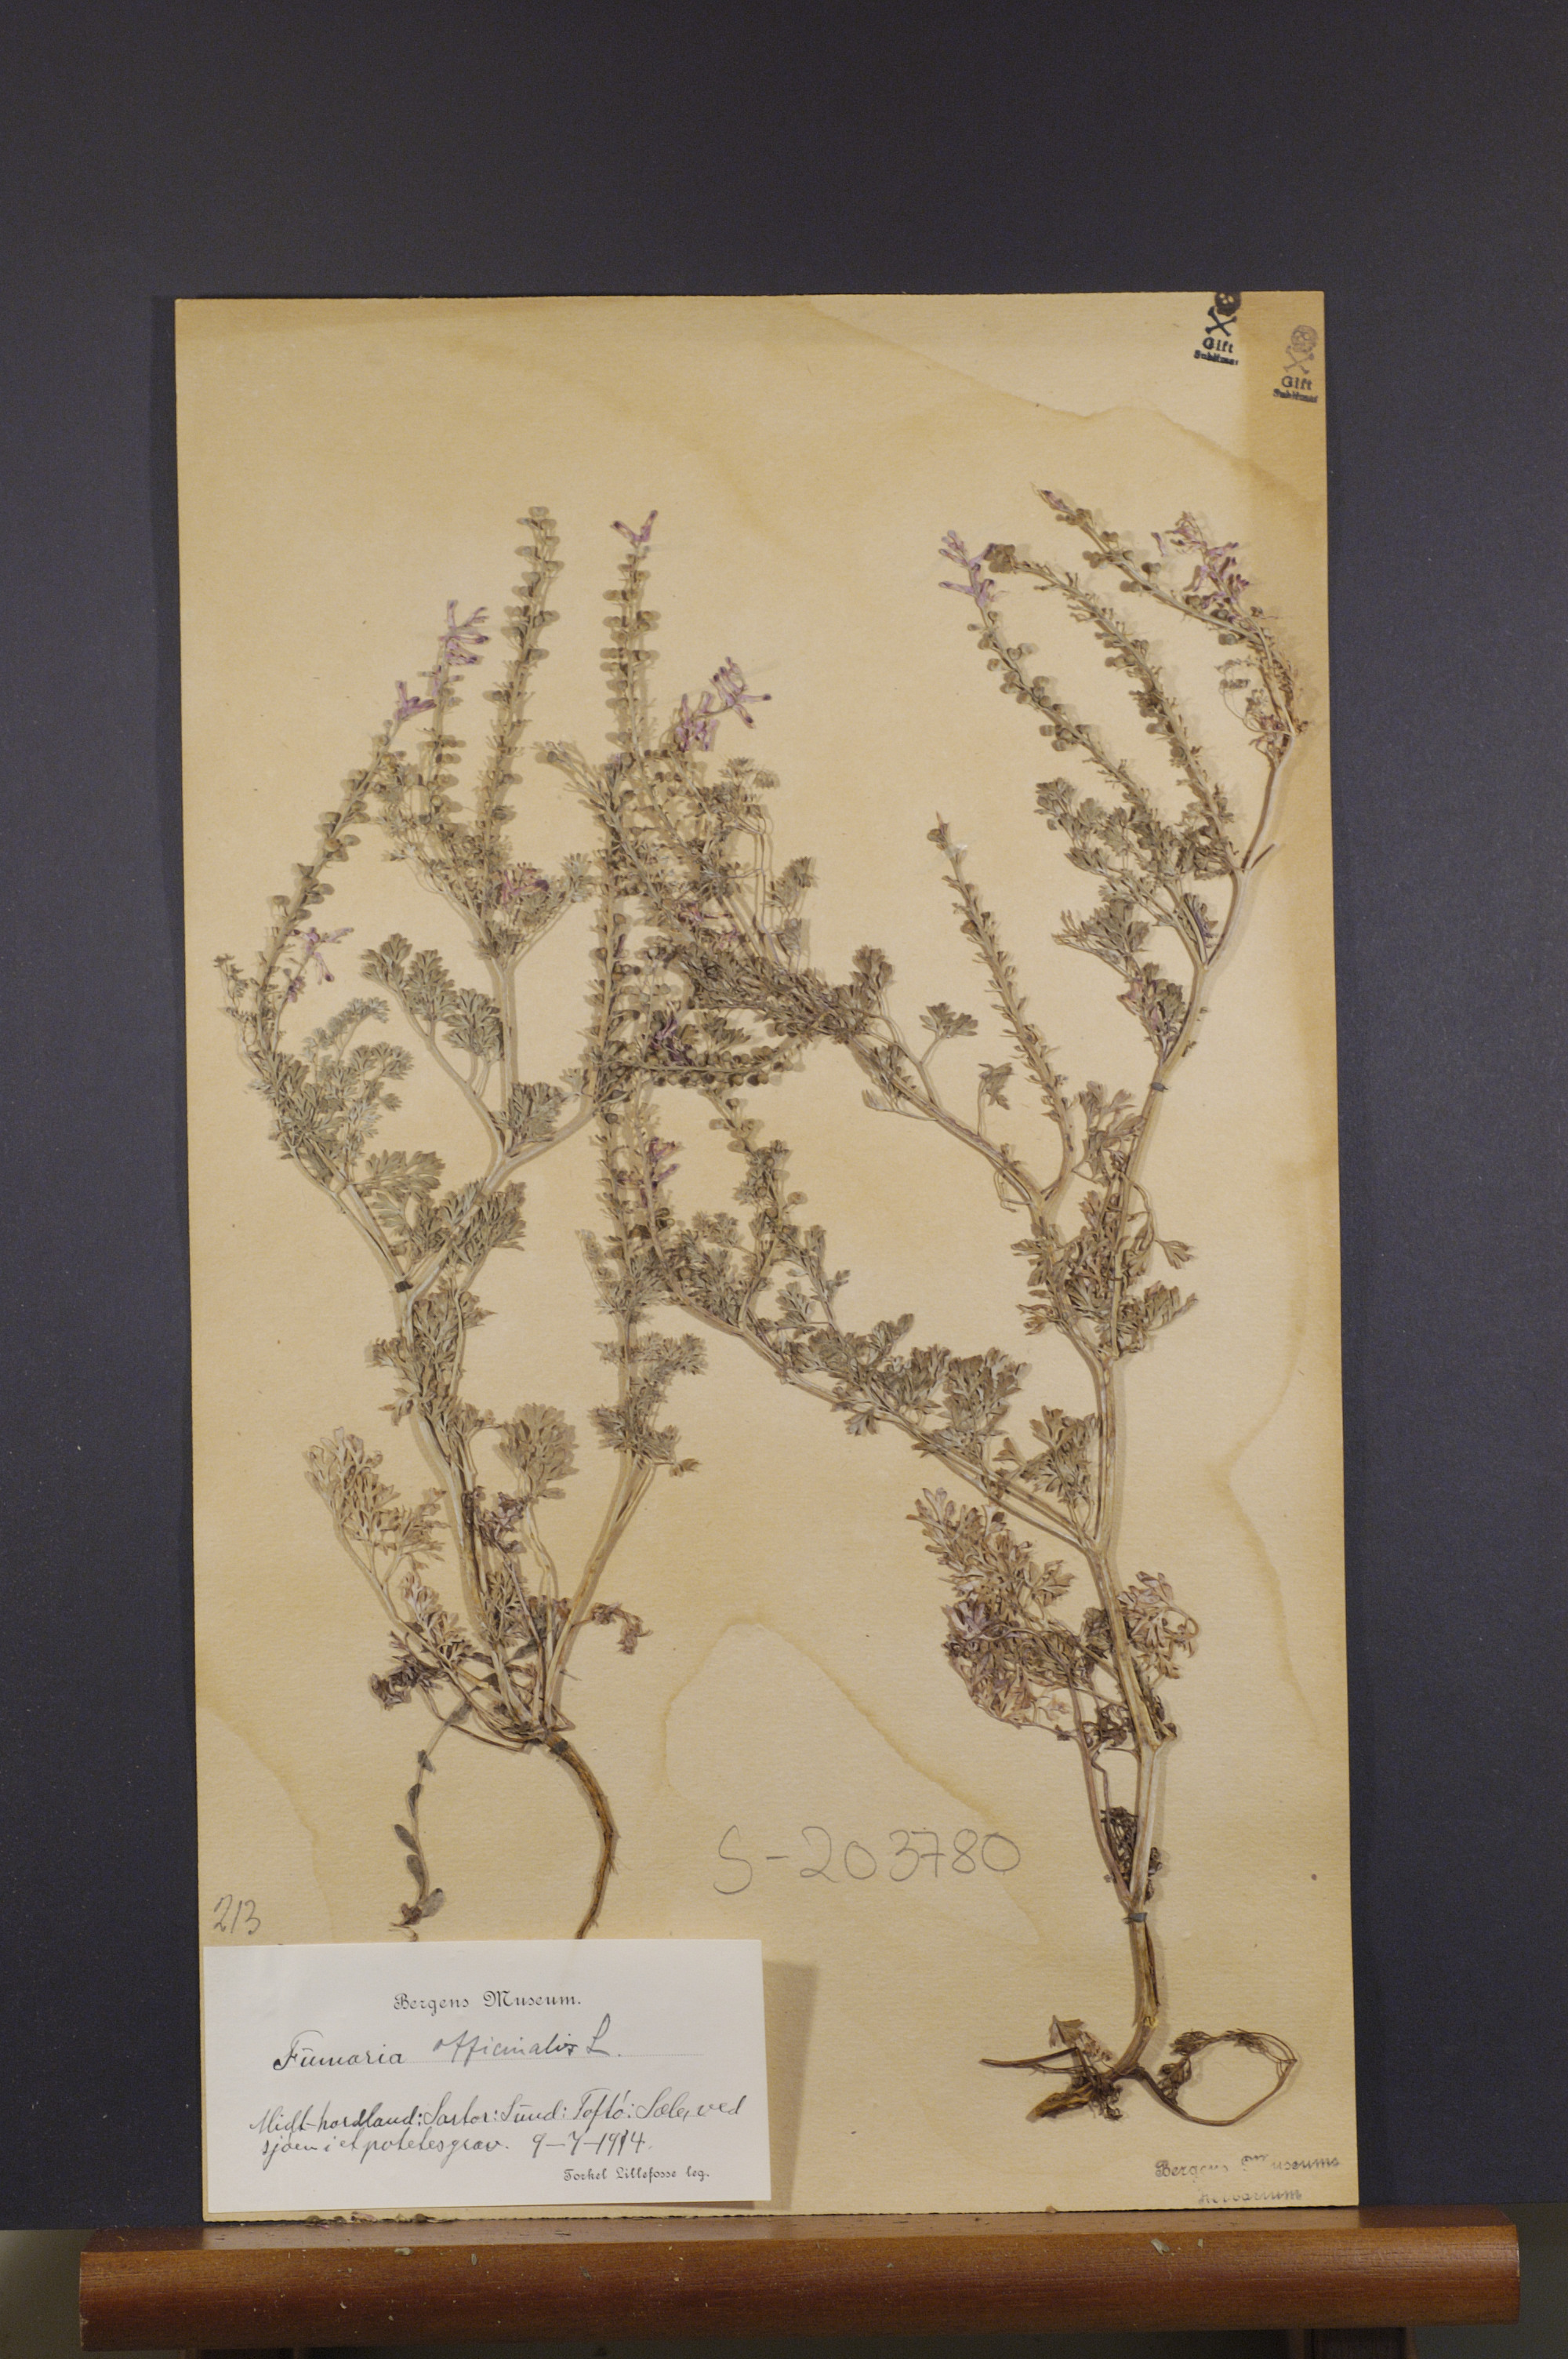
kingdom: Plantae
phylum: Tracheophyta
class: Magnoliopsida
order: Ranunculales
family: Papaveraceae
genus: Fumaria
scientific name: Fumaria officinalis
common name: Common fumitory
